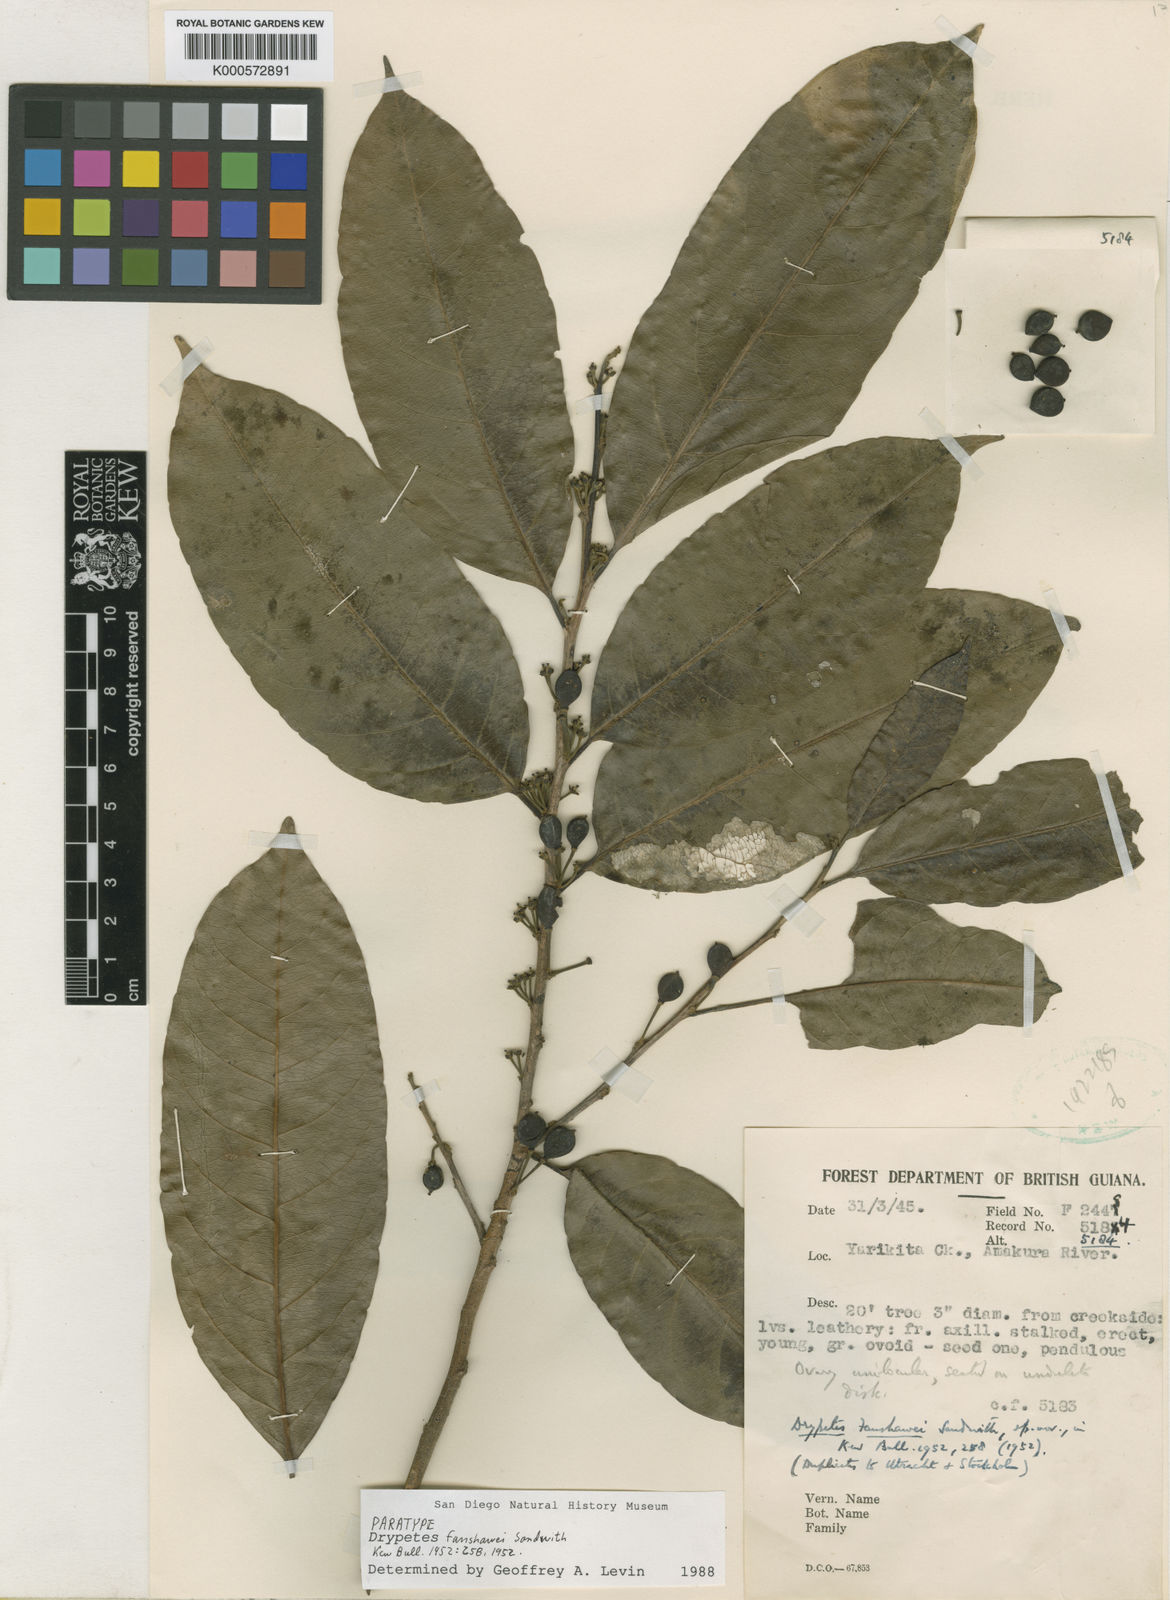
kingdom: Plantae
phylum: Tracheophyta
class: Magnoliopsida
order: Malpighiales
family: Putranjivaceae
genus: Drypetes
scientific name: Drypetes fanshawei
